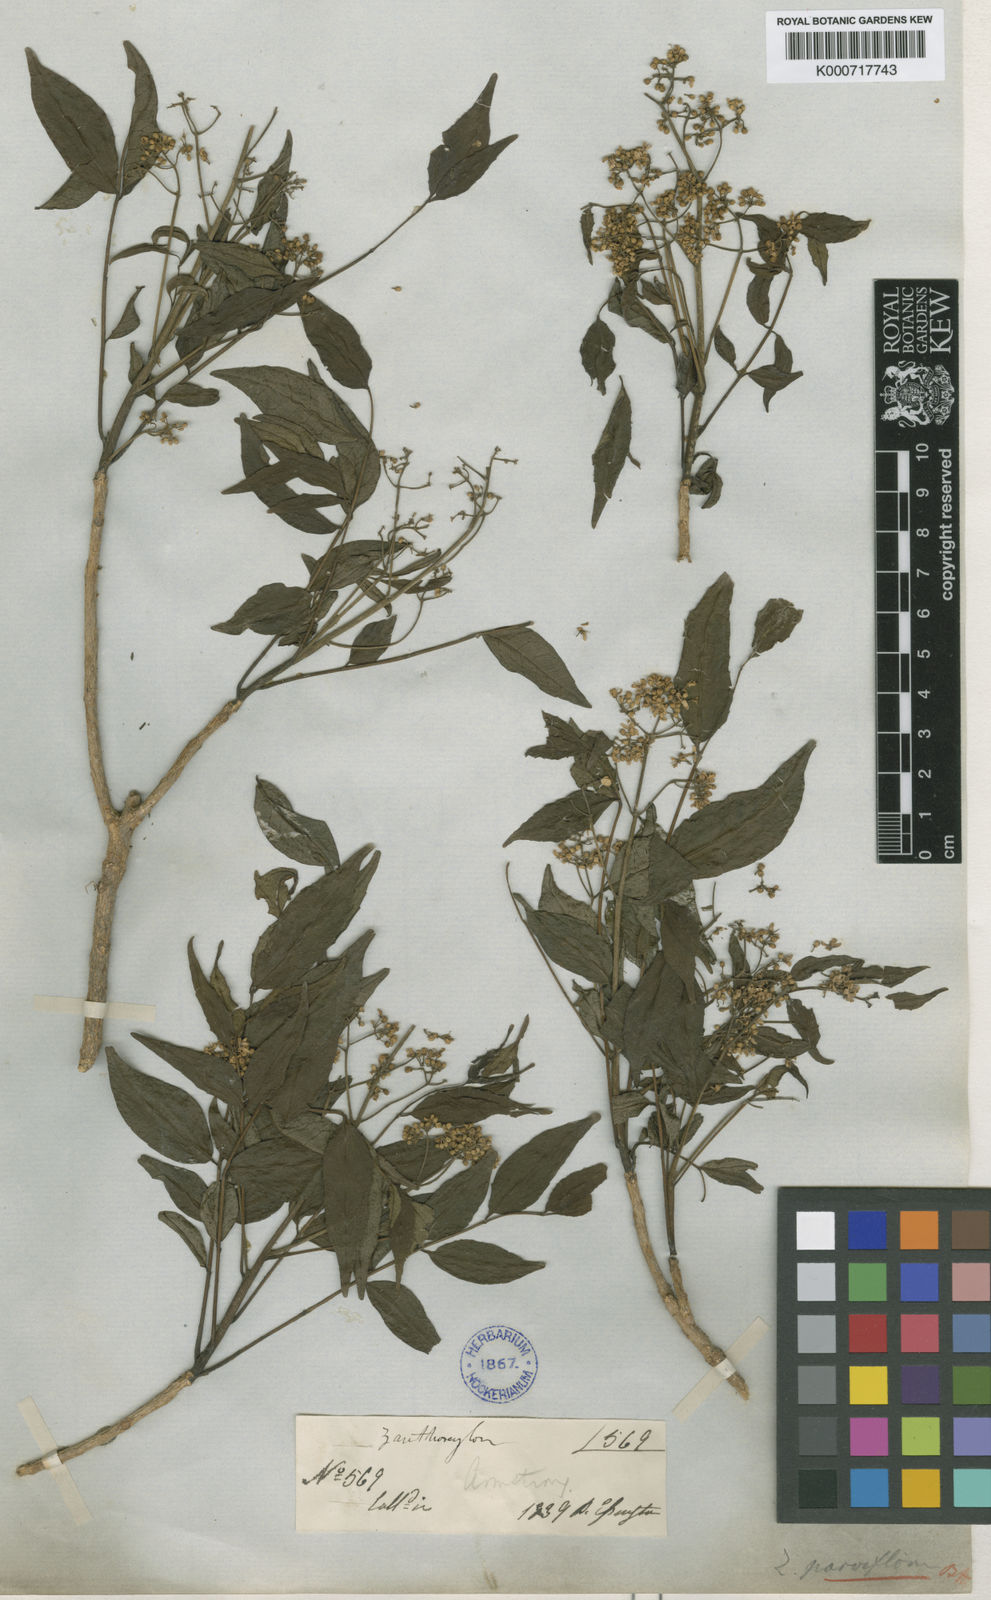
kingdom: Plantae
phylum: Tracheophyta
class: Magnoliopsida
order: Sapindales
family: Rutaceae
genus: Zanthoxylum
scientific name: Zanthoxylum rhetsa
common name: Indian ivy-rue
